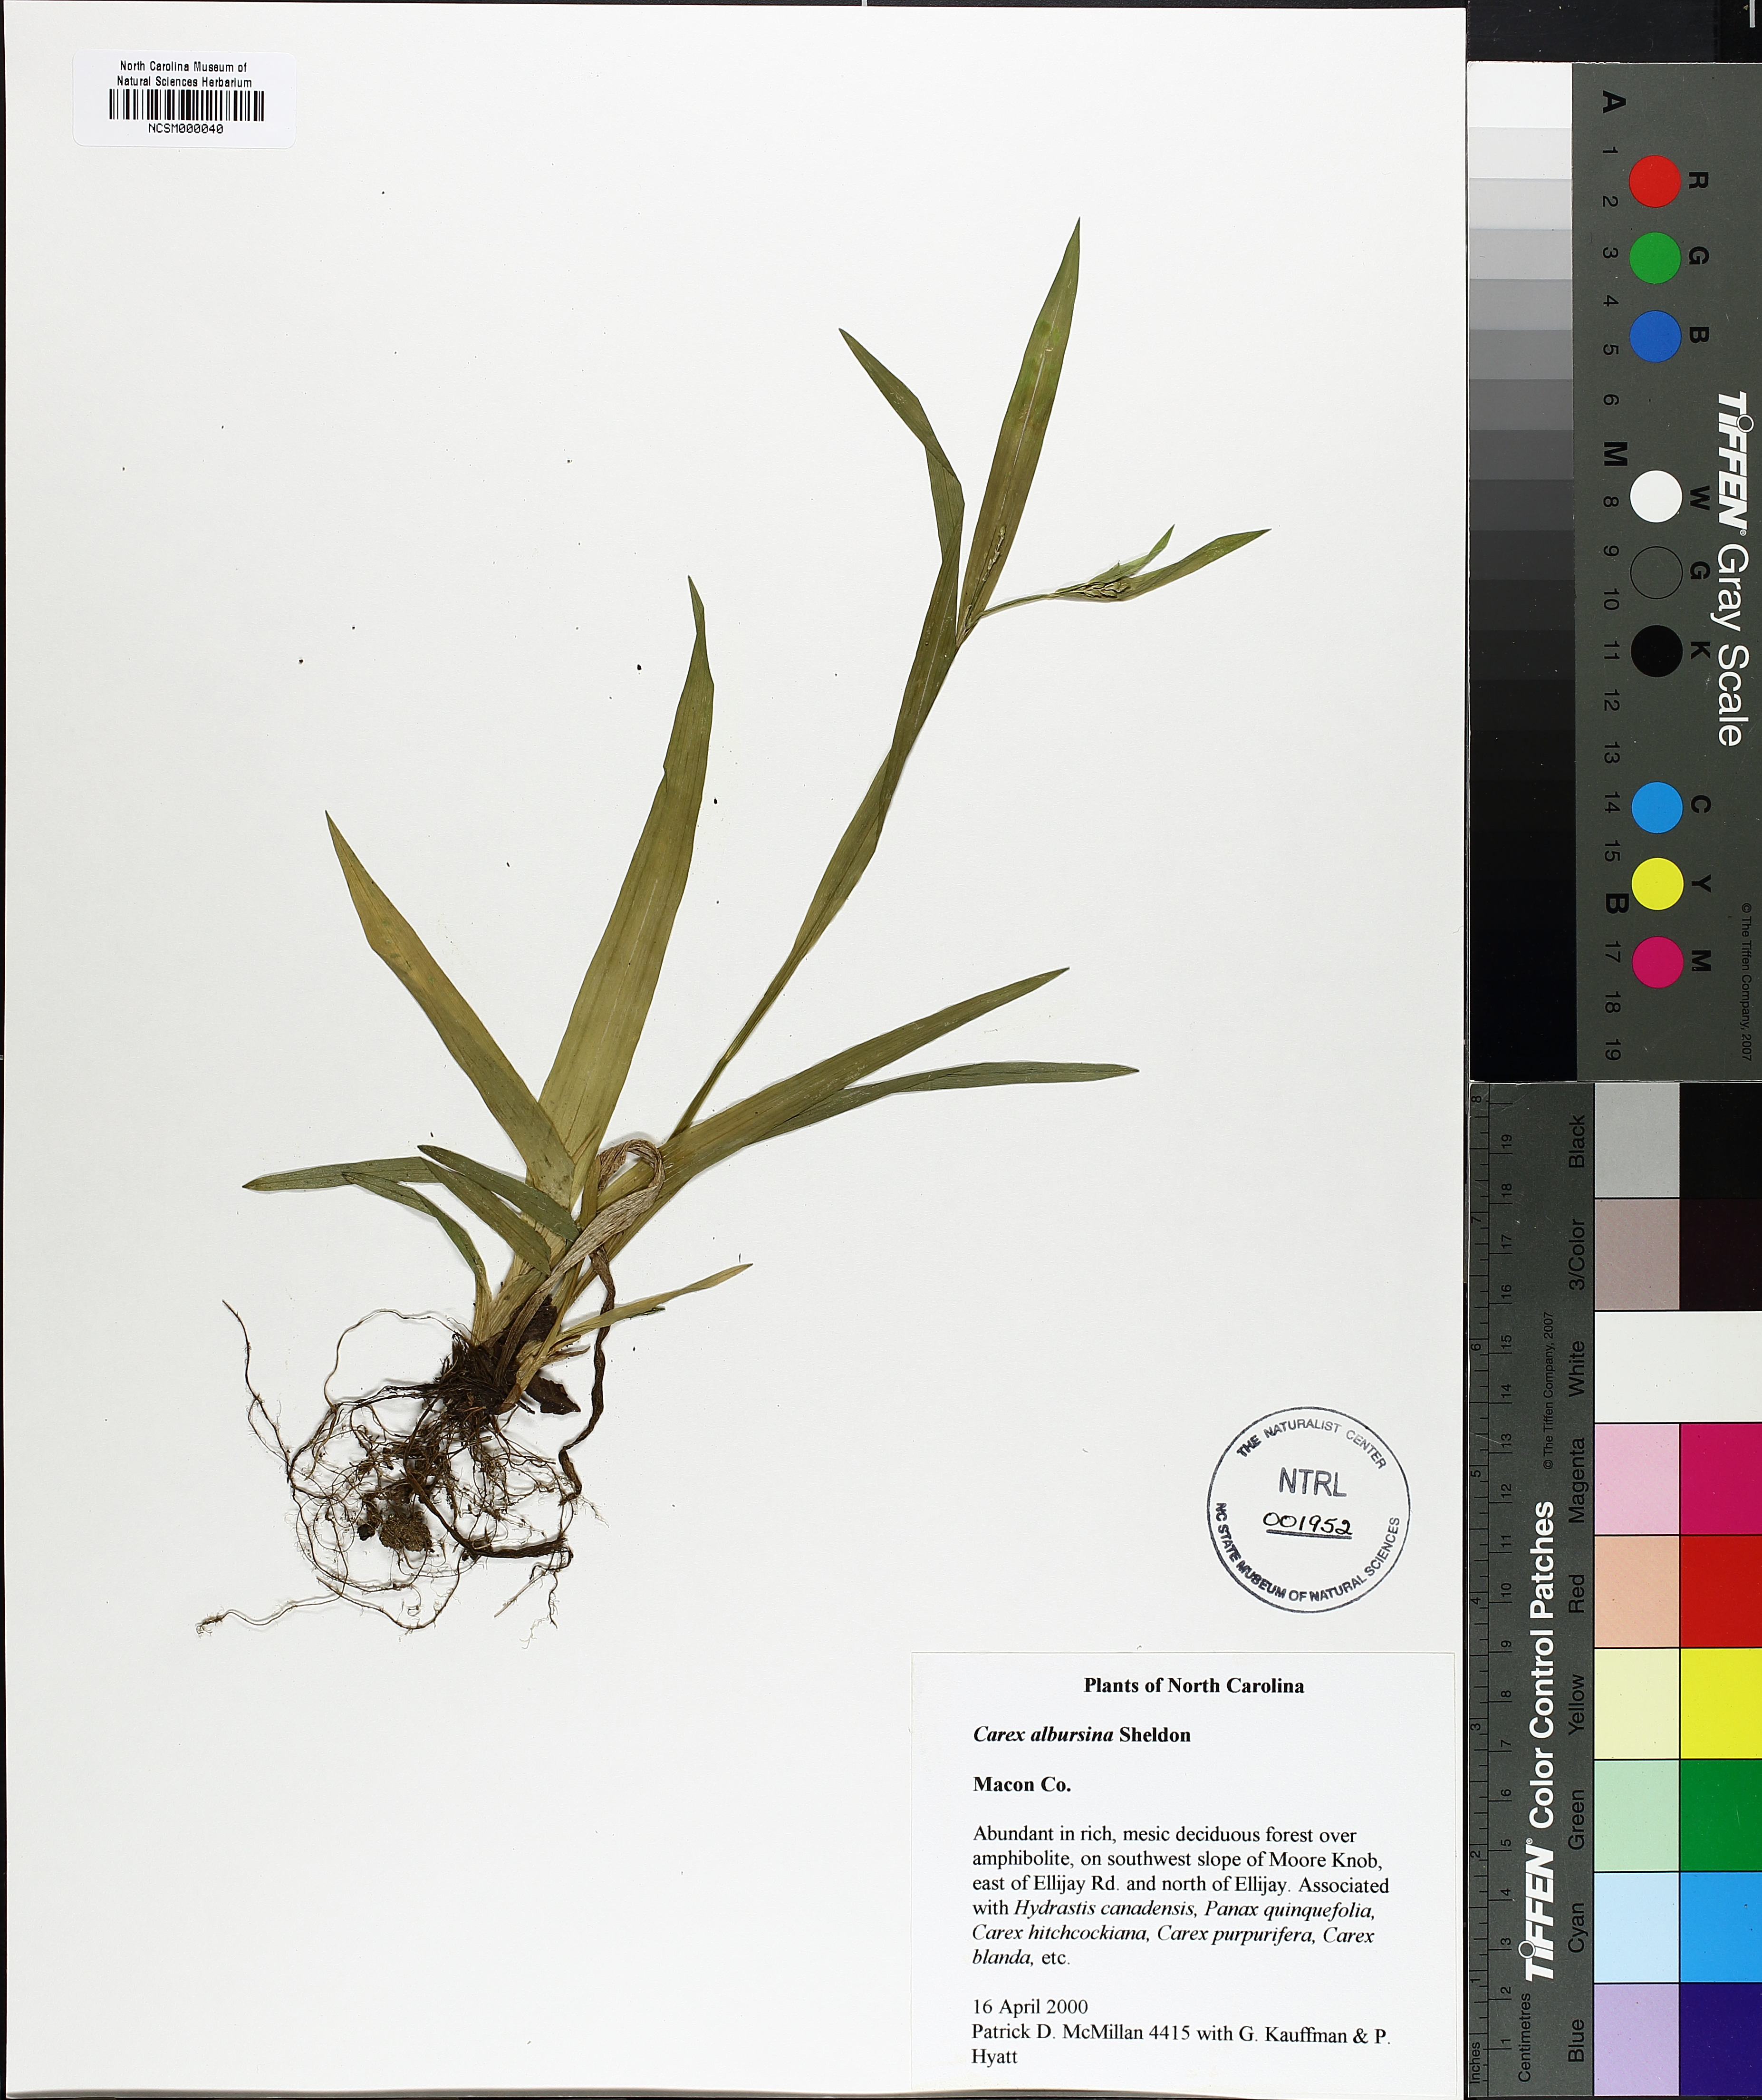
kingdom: Plantae
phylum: Tracheophyta
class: Liliopsida
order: Poales
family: Cyperaceae
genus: Carex
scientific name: Carex albursina
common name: Blunt-scale wood sedge
